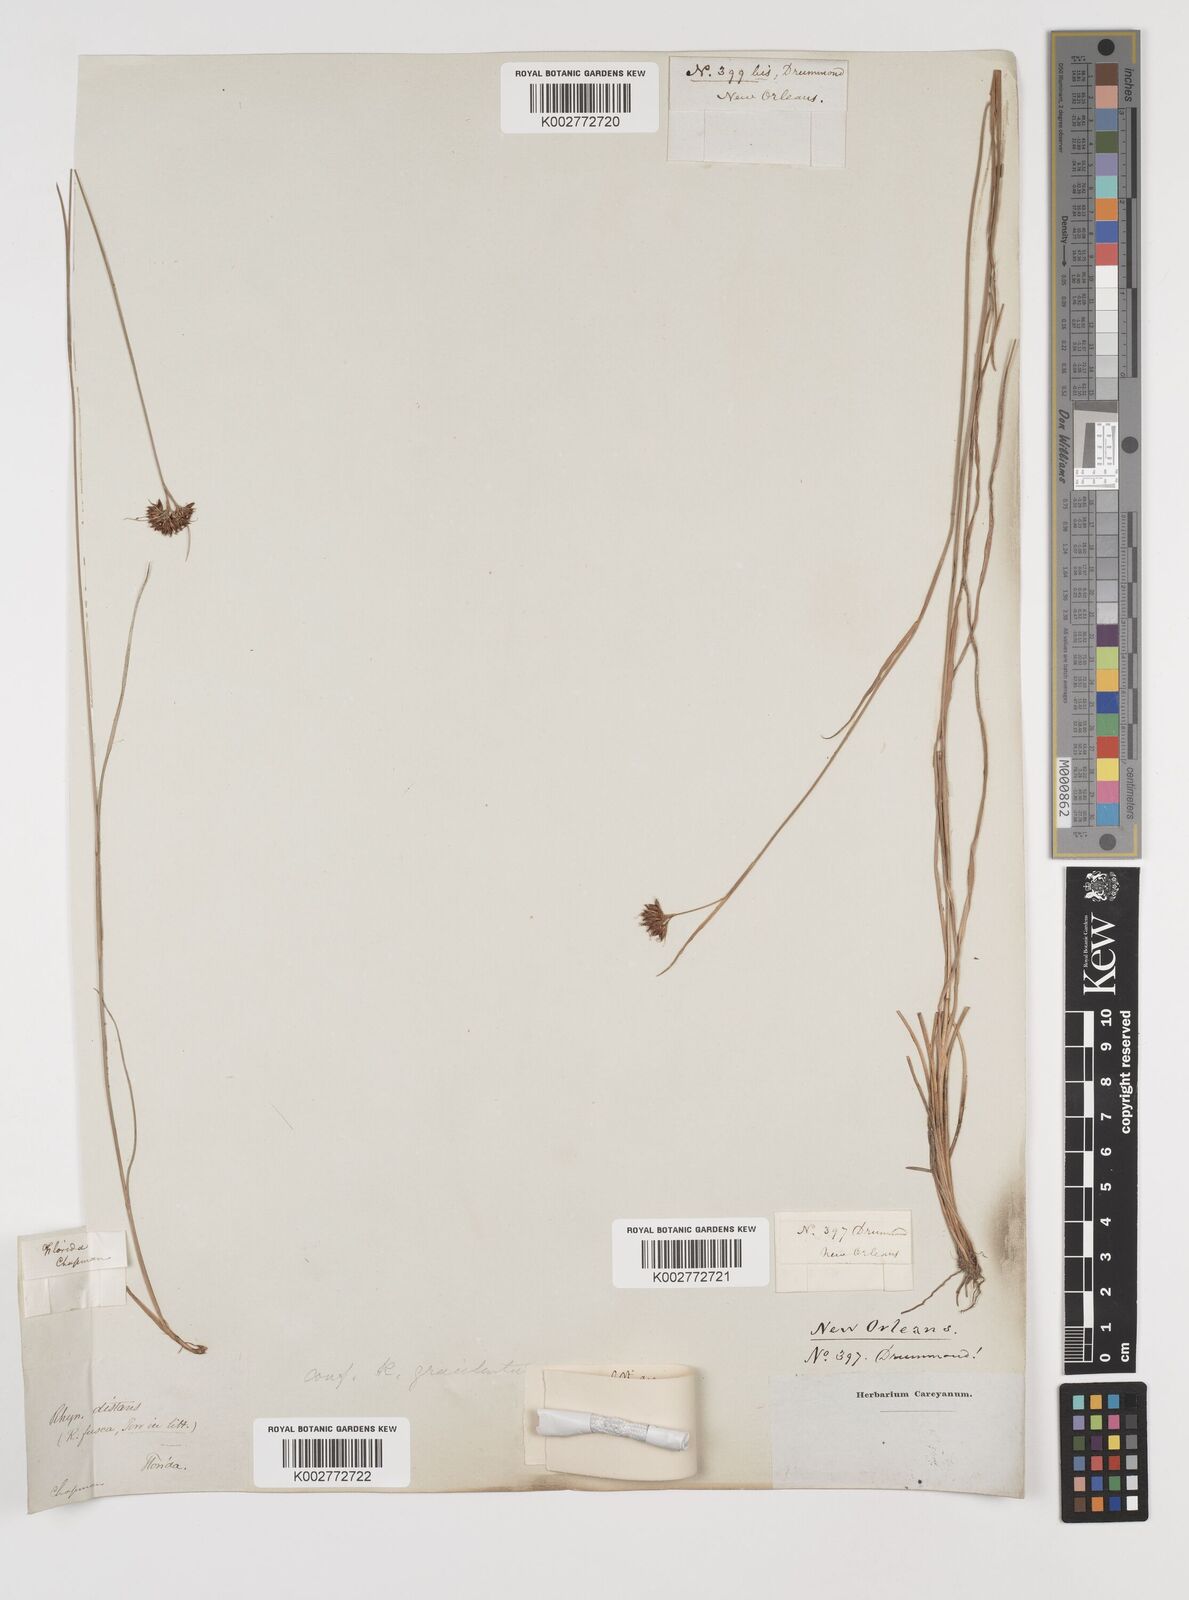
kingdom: Plantae
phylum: Tracheophyta
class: Liliopsida
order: Poales
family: Cyperaceae
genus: Rhynchospora
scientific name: Rhynchospora gracilenta
